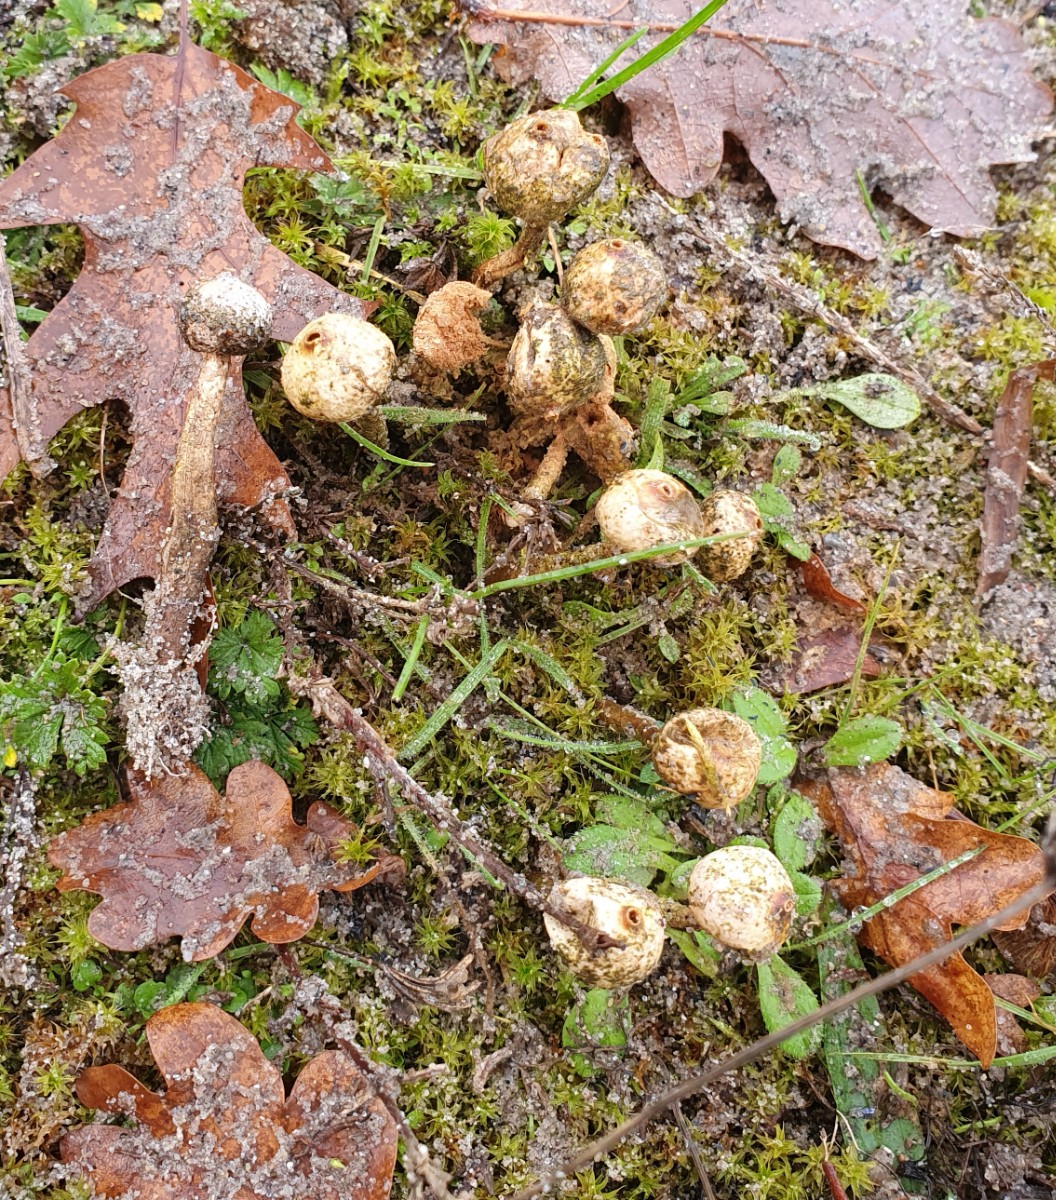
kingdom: Fungi
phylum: Basidiomycota
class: Agaricomycetes
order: Agaricales
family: Agaricaceae
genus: Tulostoma
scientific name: Tulostoma brumale
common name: vinter-stilkbovist
